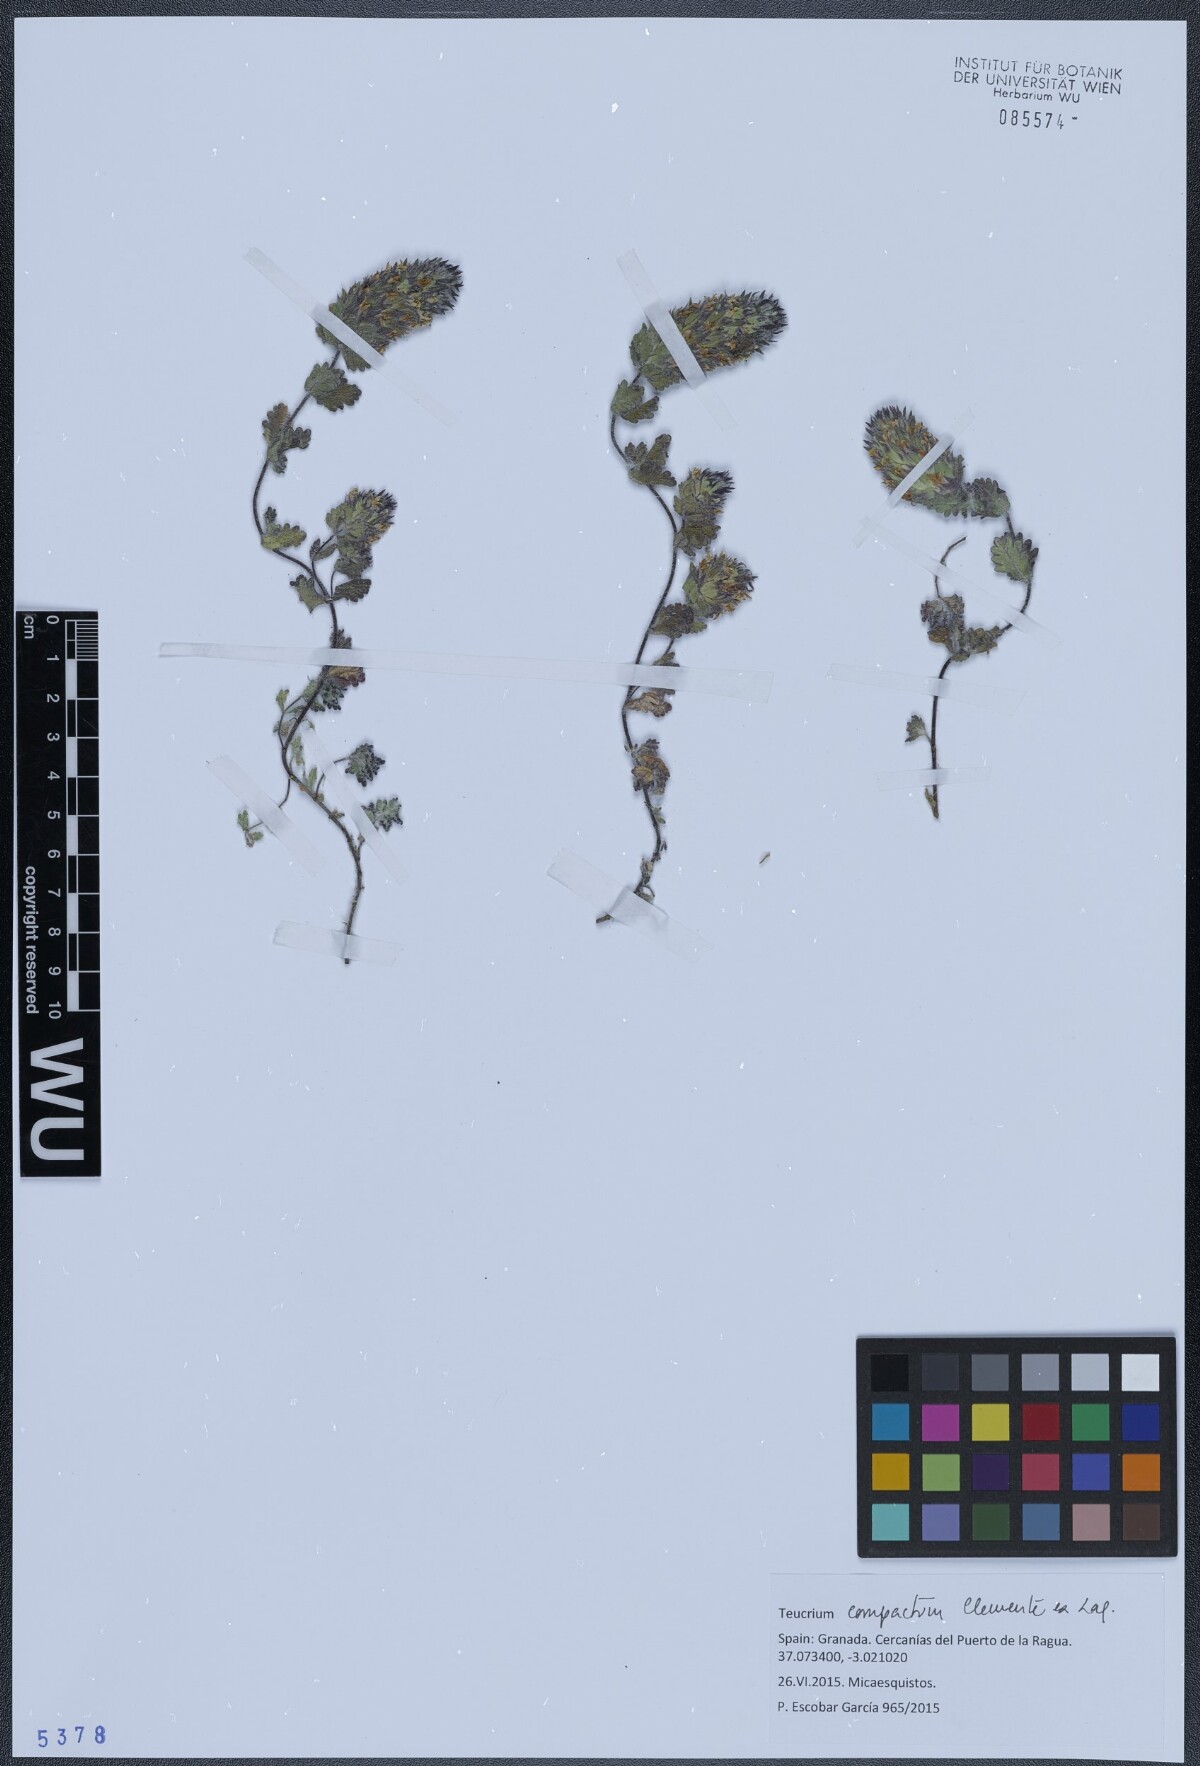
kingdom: Plantae
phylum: Tracheophyta
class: Magnoliopsida
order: Lamiales
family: Lamiaceae
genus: Teucrium
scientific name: Teucrium compactum
